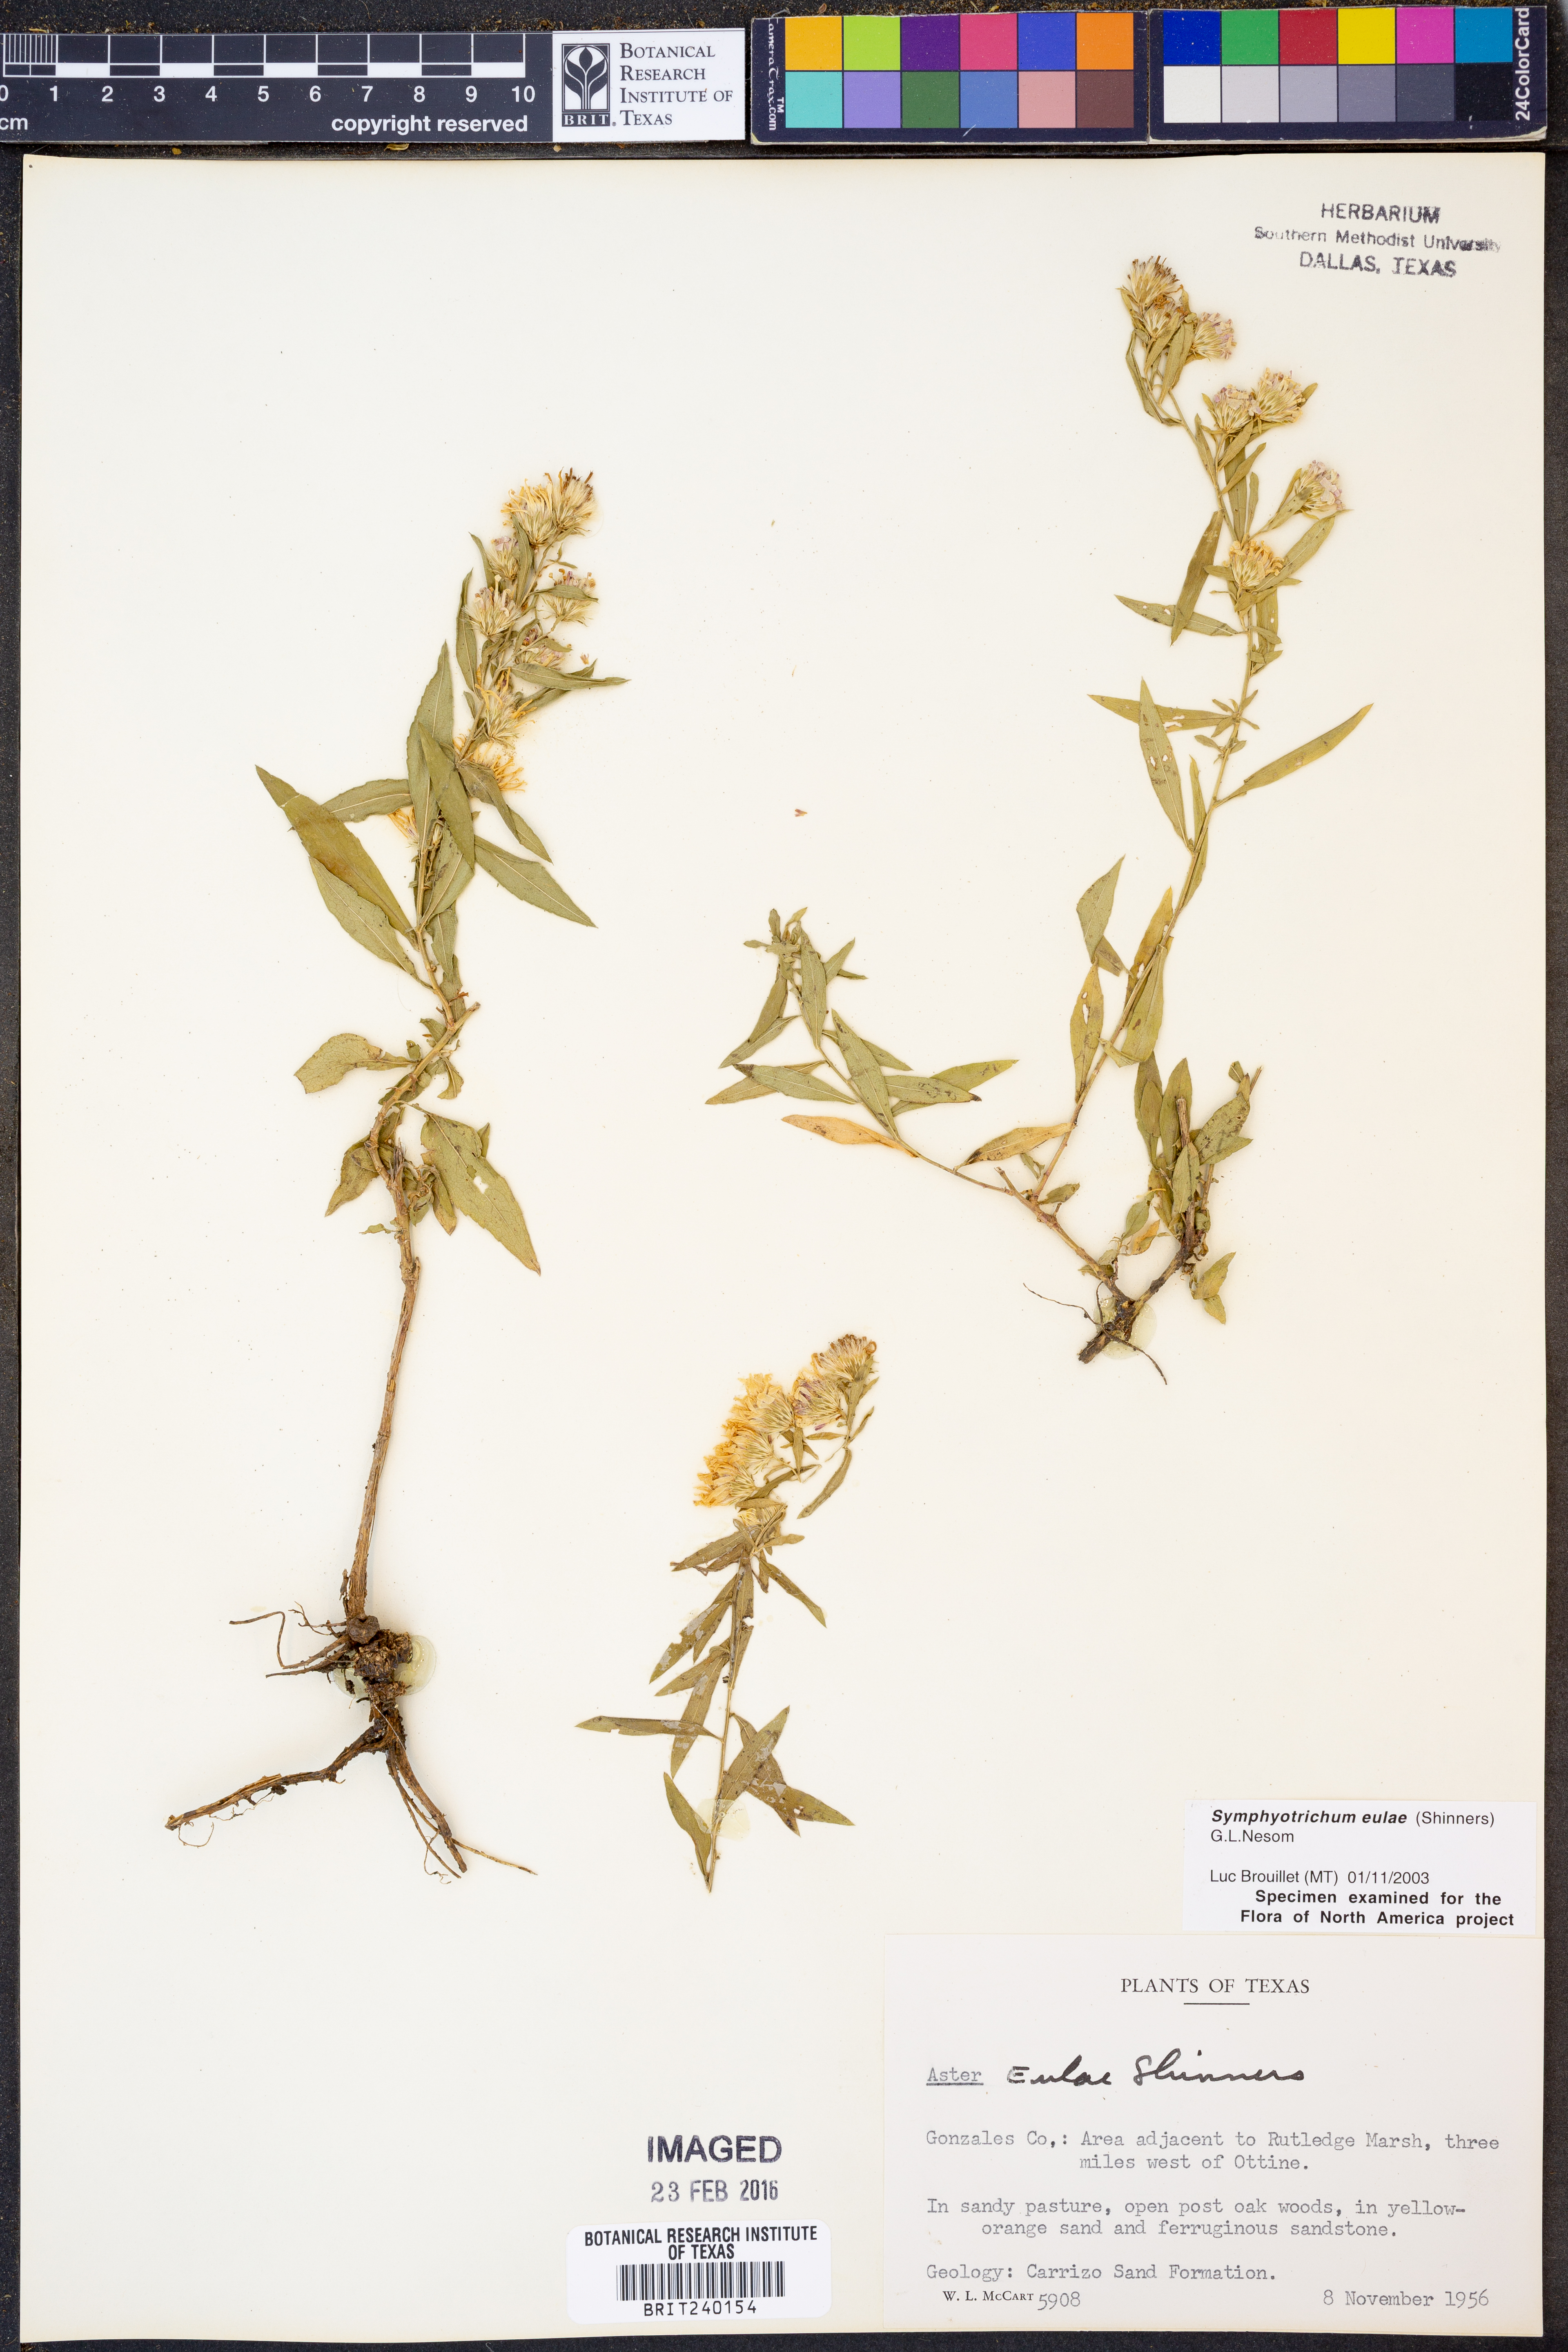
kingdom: Plantae
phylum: Tracheophyta
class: Magnoliopsida
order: Asterales
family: Asteraceae
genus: Symphyotrichum
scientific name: Symphyotrichum eulae
